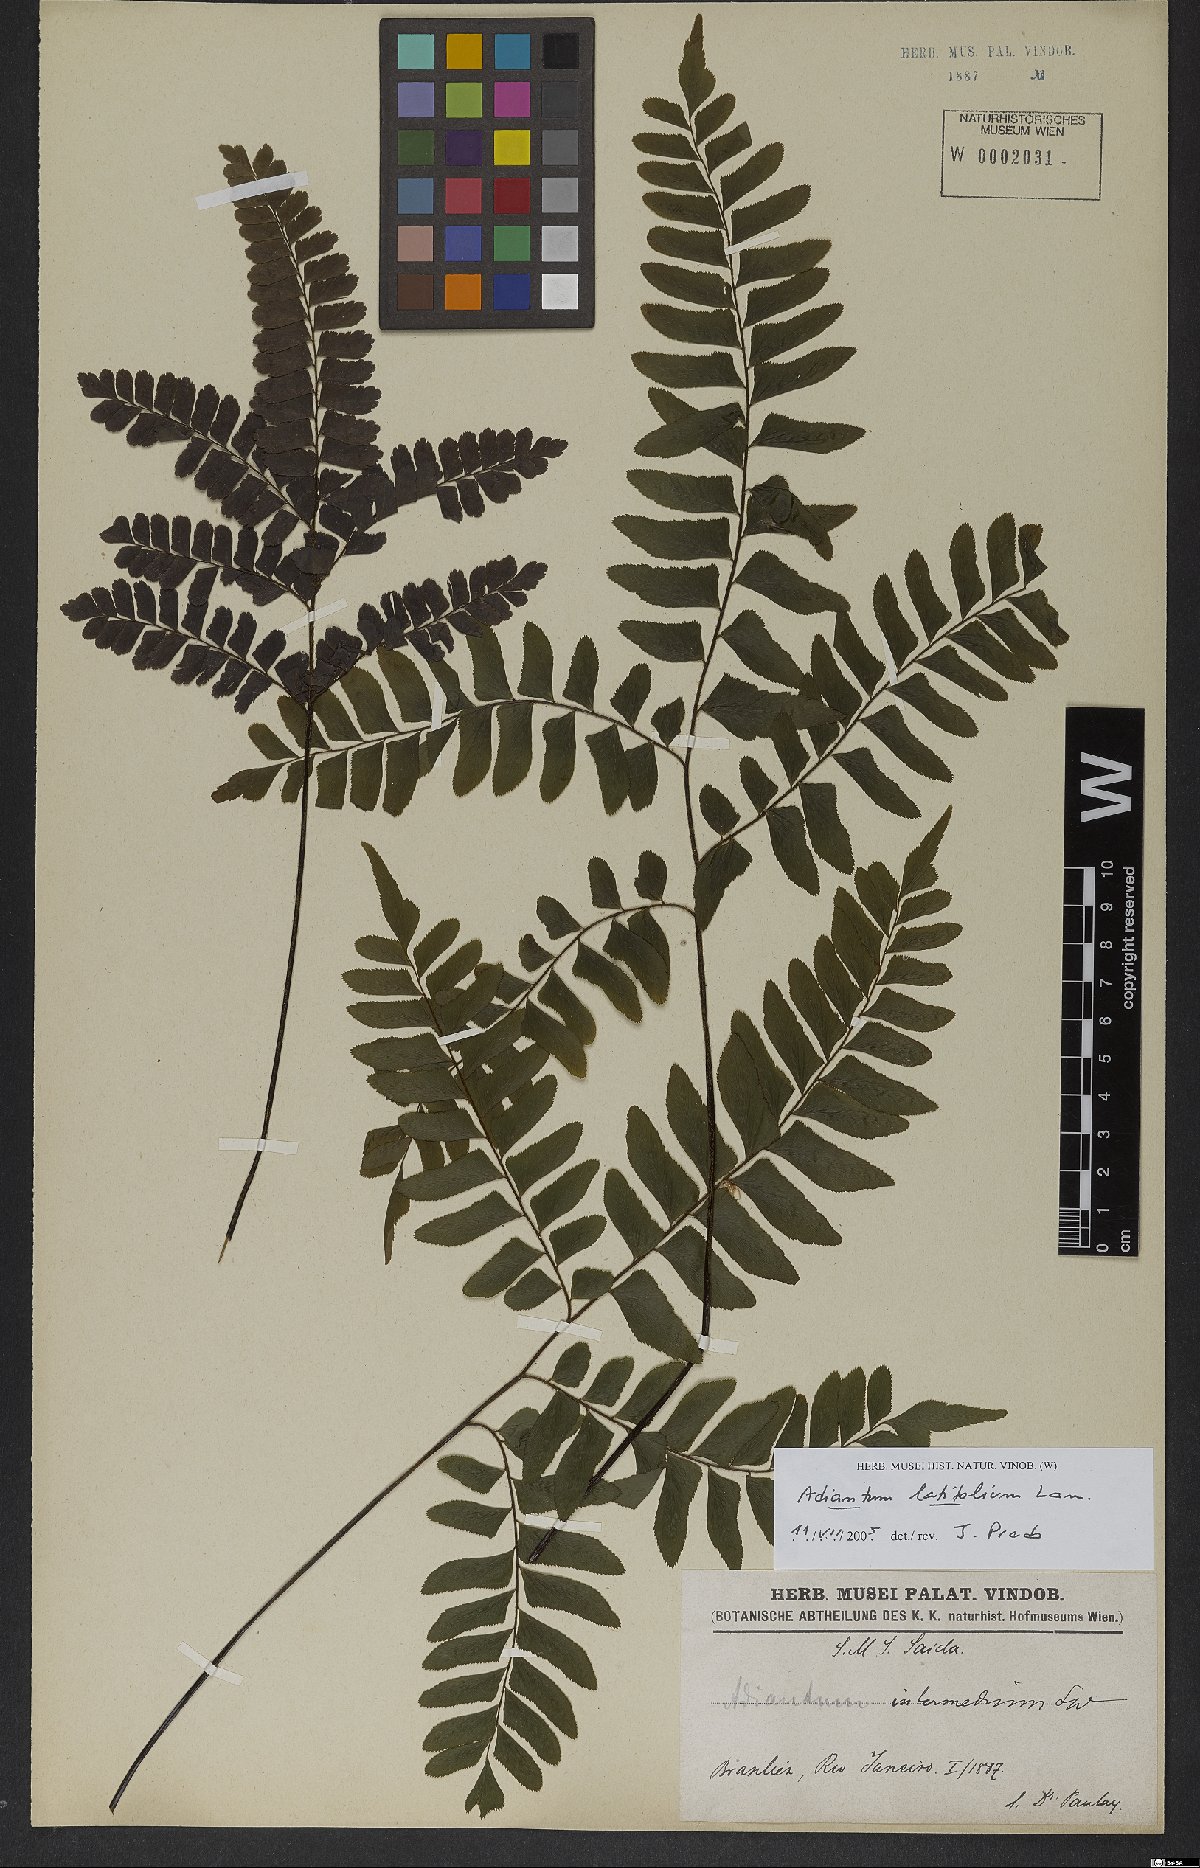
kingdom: Plantae
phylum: Tracheophyta
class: Polypodiopsida
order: Polypodiales
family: Pteridaceae
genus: Adiantum
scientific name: Adiantum latifolium
